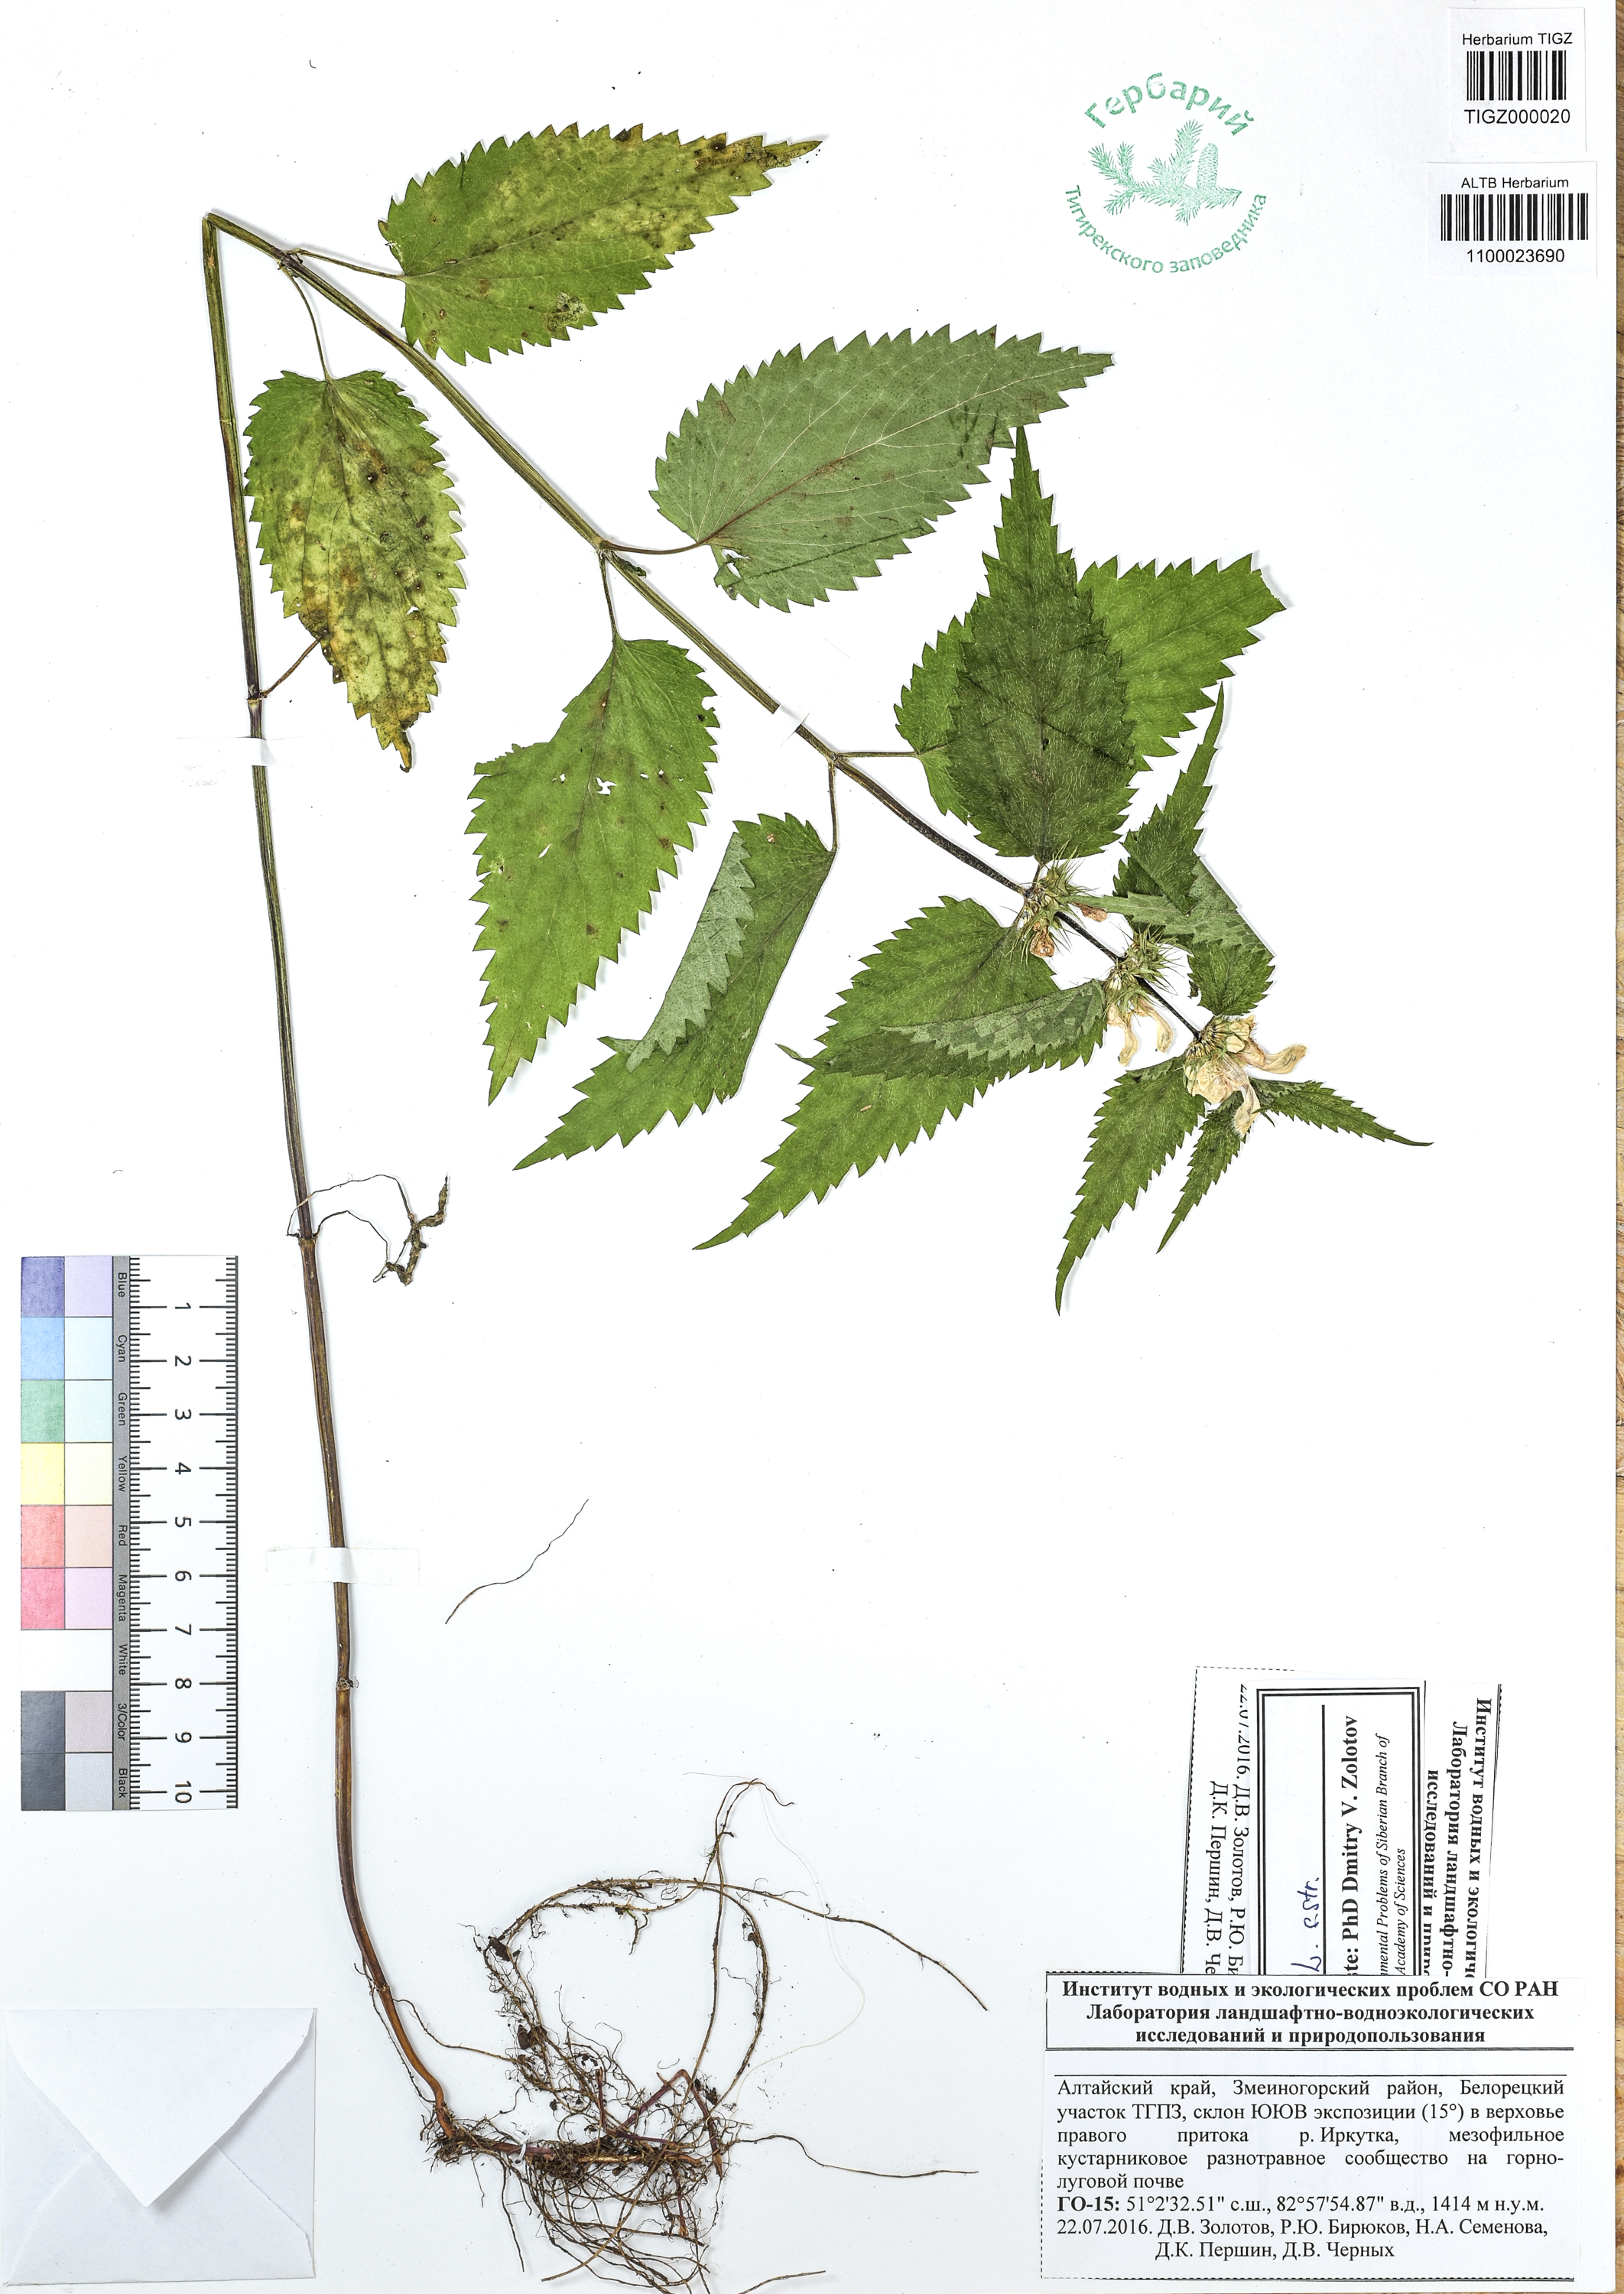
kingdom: Plantae
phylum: Tracheophyta
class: Magnoliopsida
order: Lamiales
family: Lamiaceae
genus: Lamium
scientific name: Lamium album
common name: White dead-nettle
